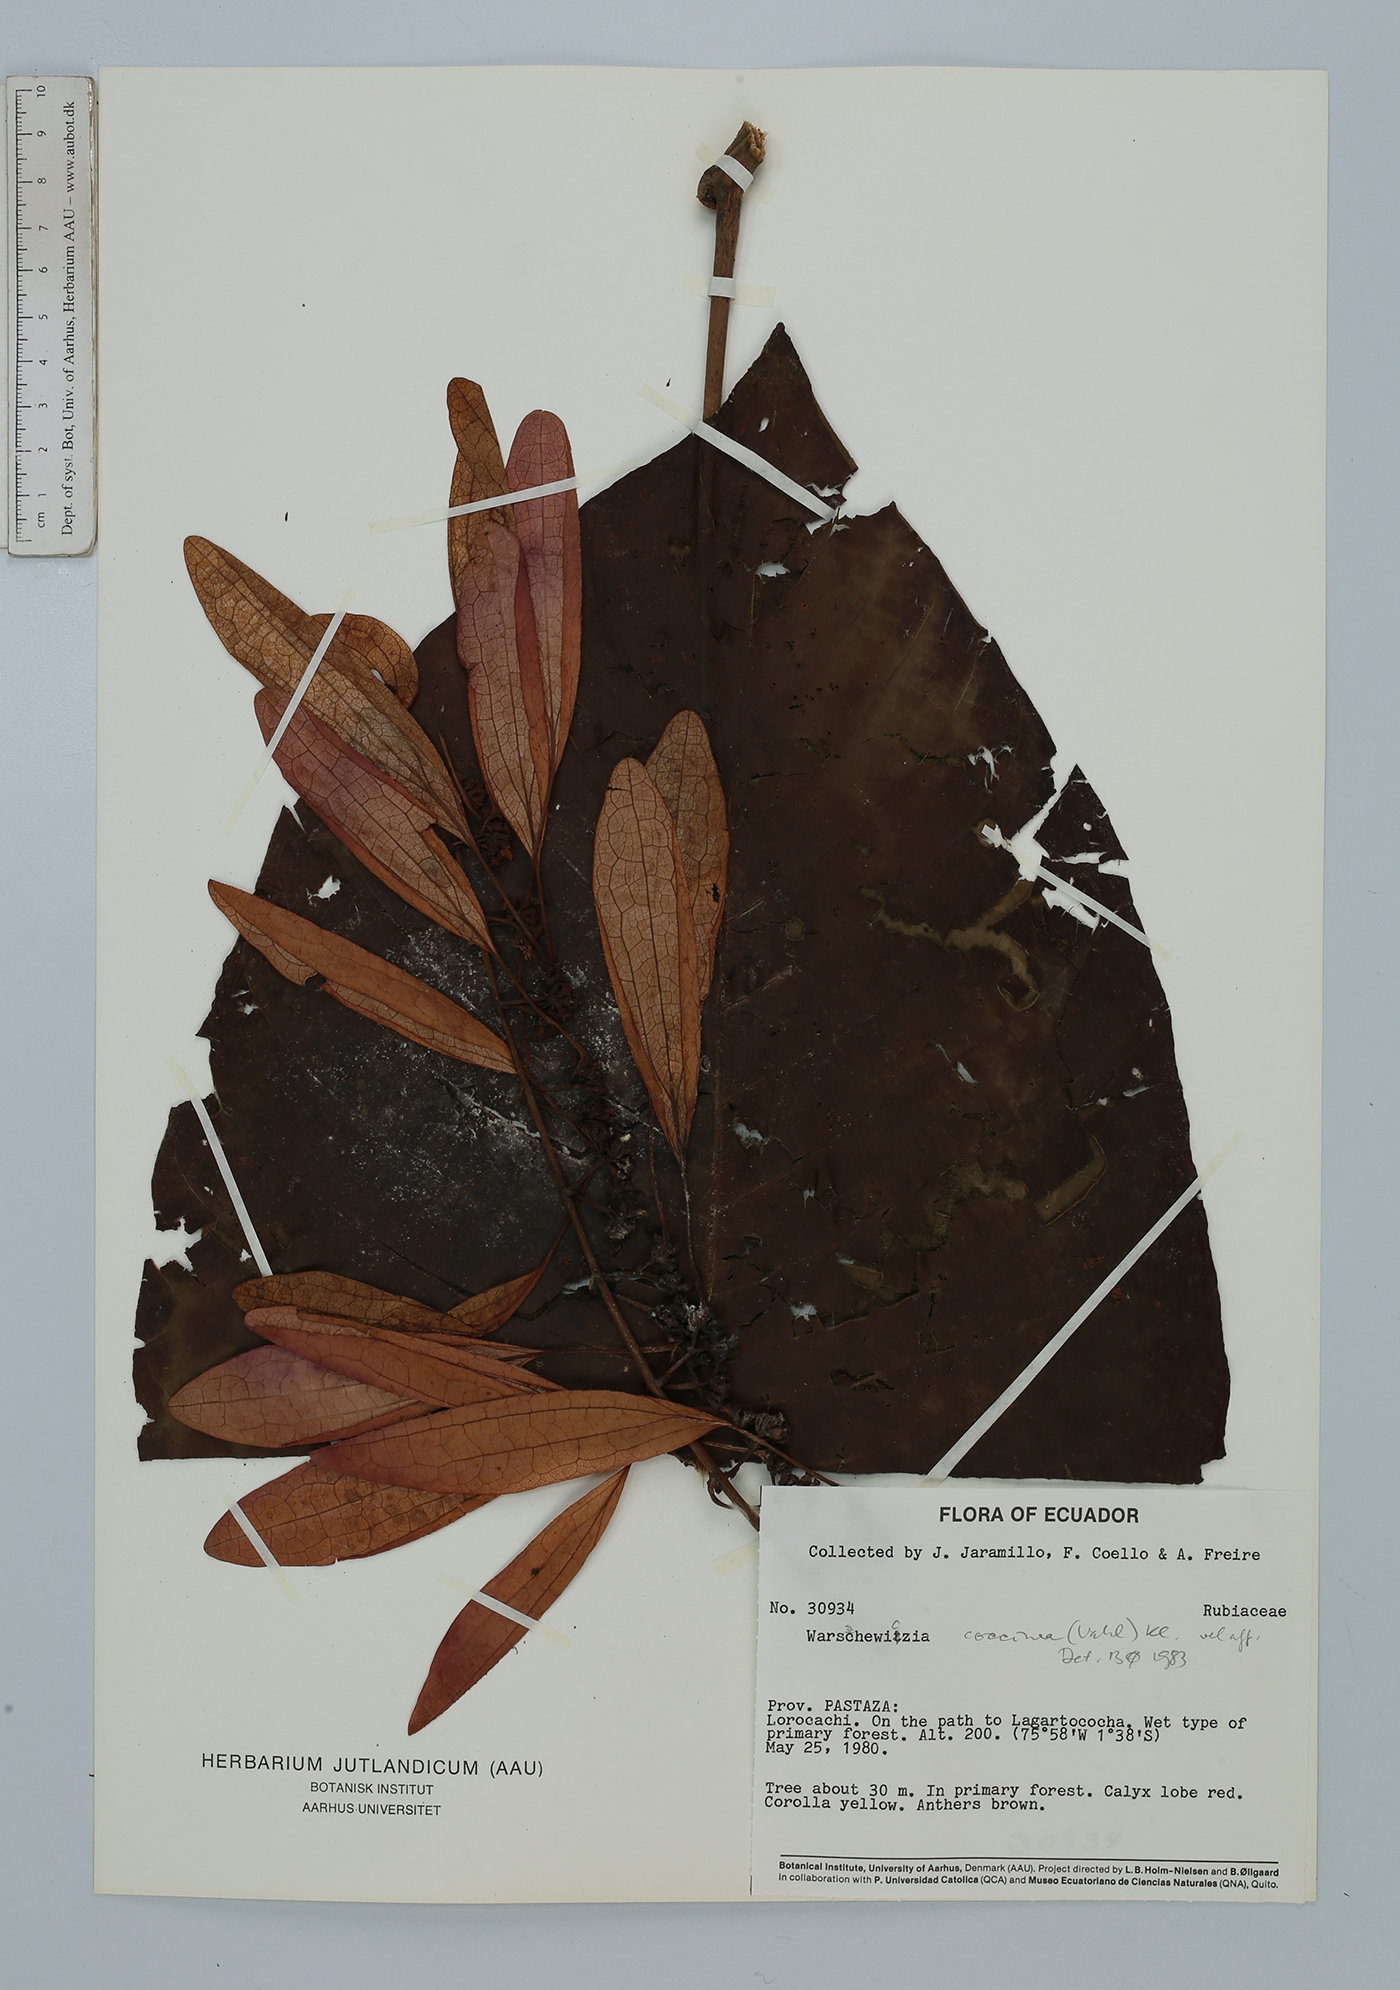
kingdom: Plantae
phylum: Tracheophyta
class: Magnoliopsida
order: Gentianales
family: Rubiaceae
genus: Warszewiczia
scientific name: Warszewiczia coccinea
